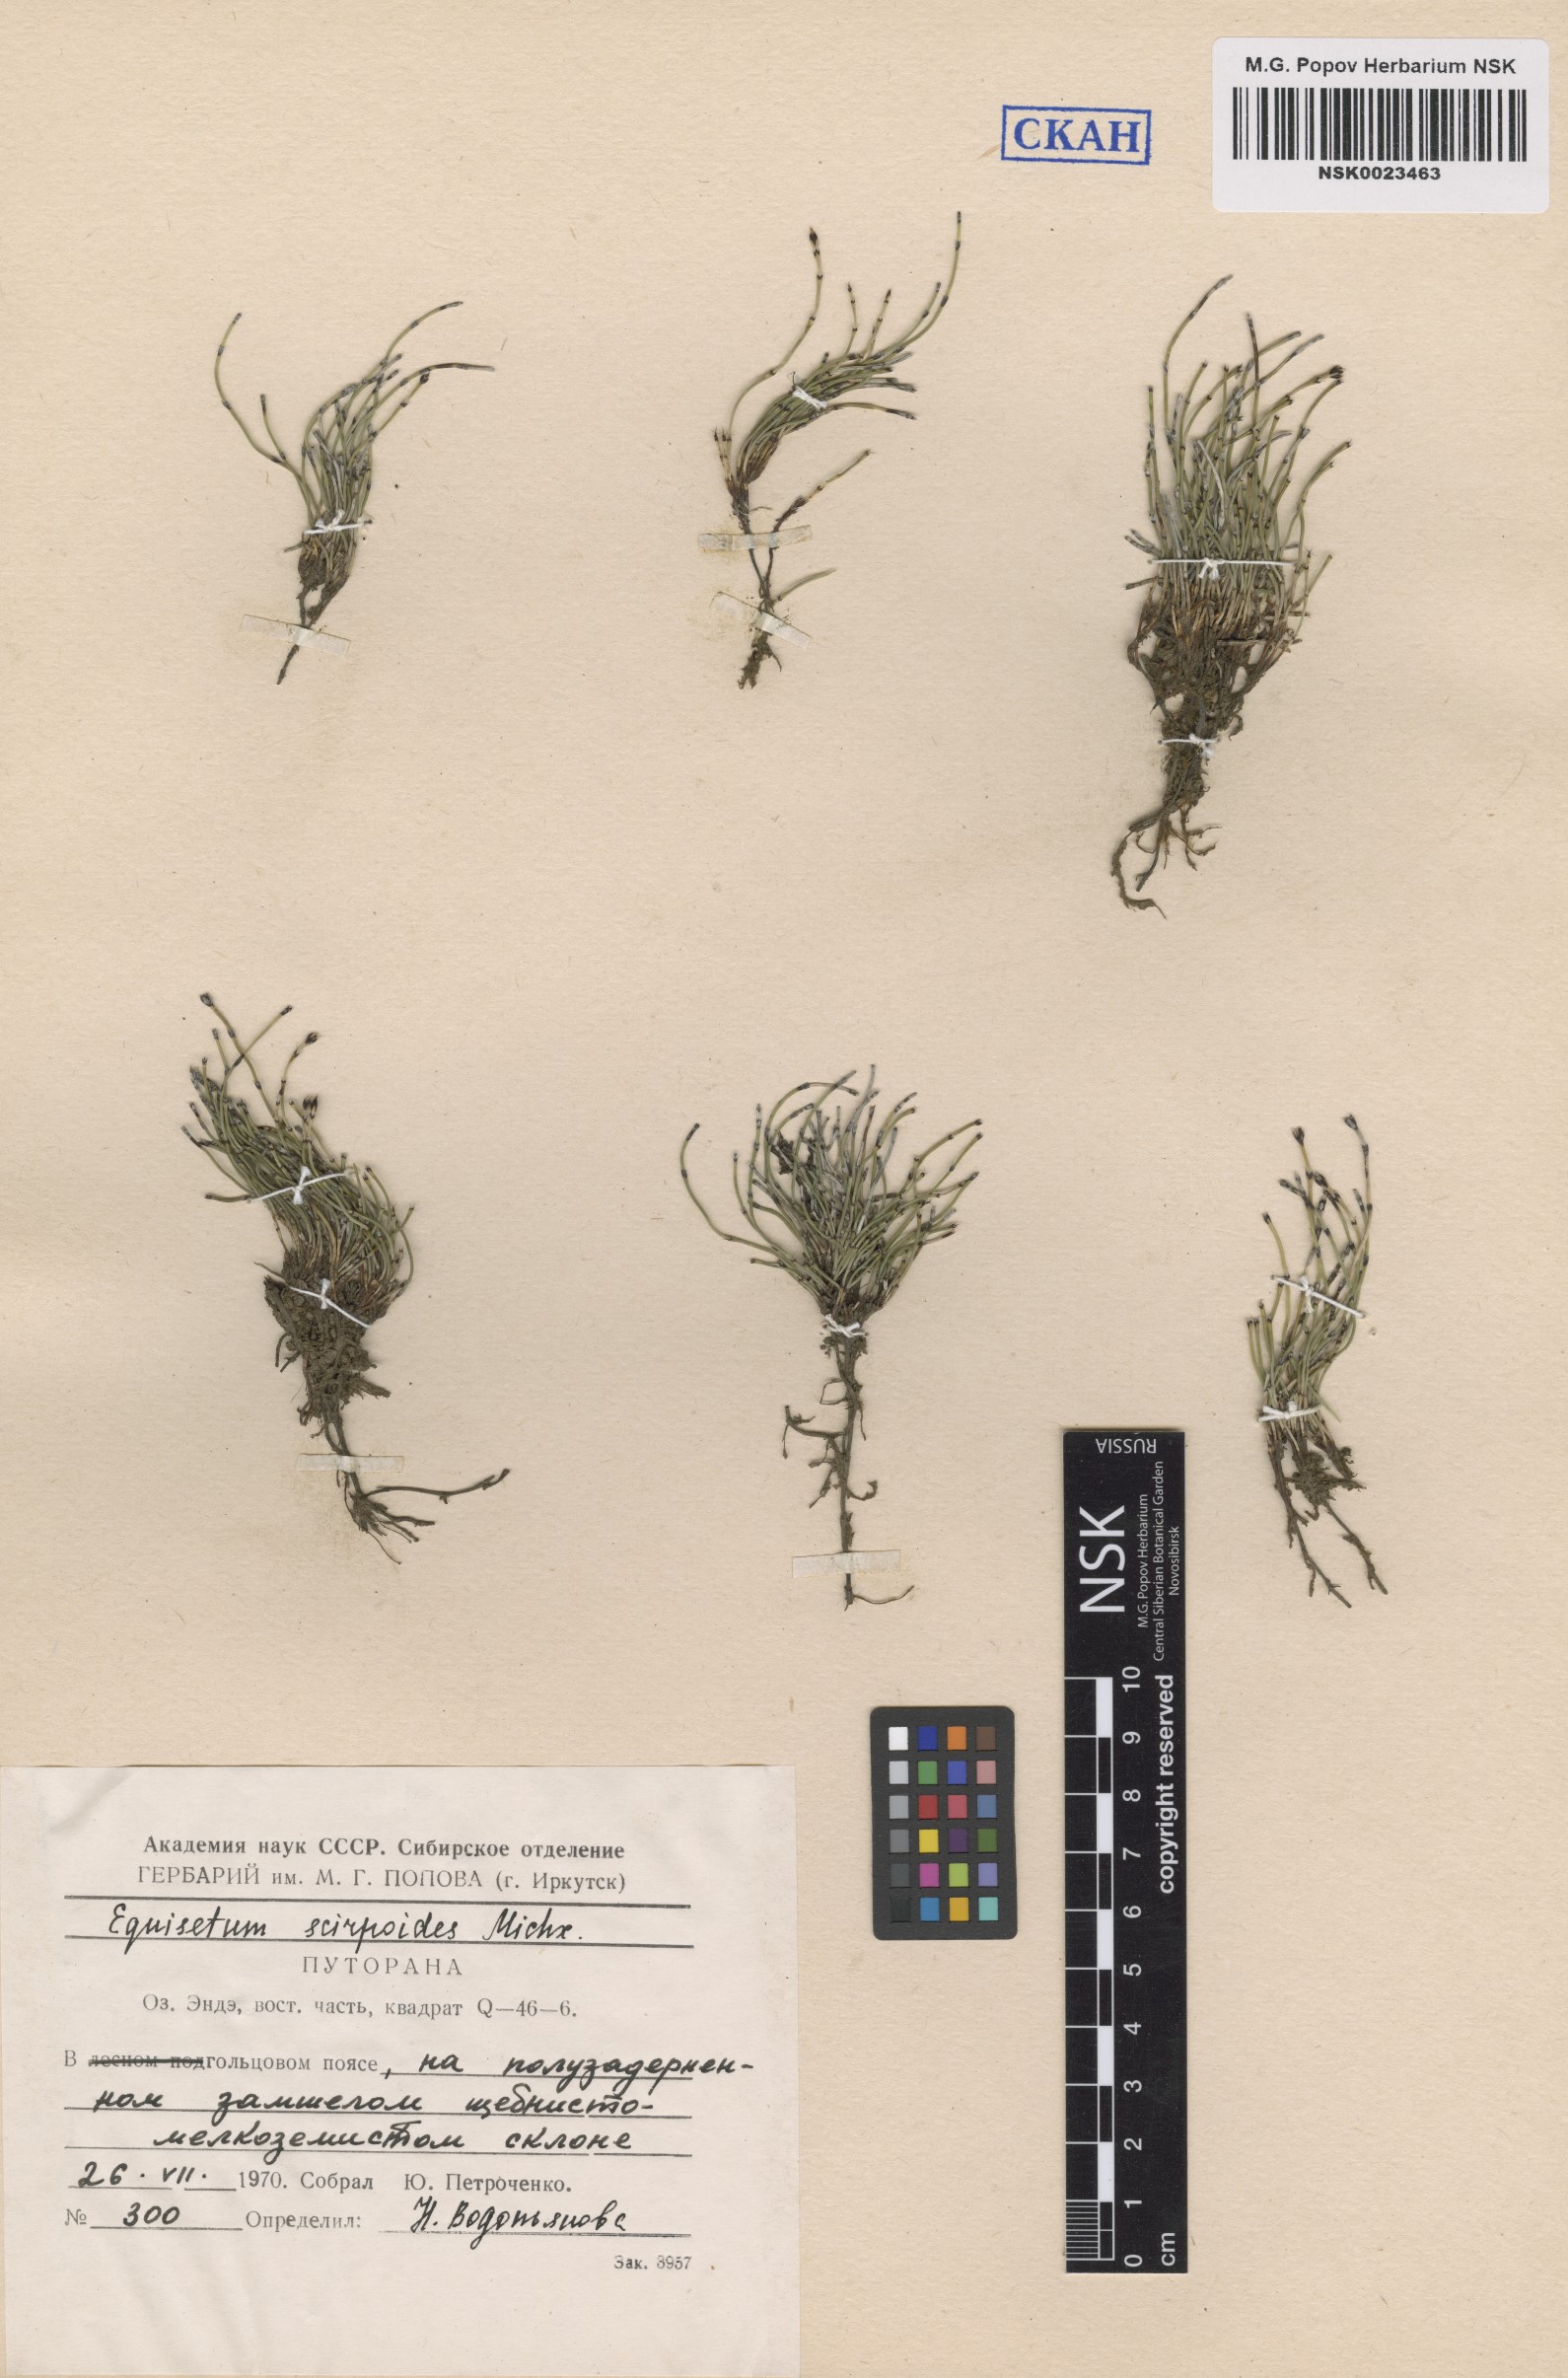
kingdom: Plantae
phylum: Tracheophyta
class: Polypodiopsida
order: Equisetales
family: Equisetaceae
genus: Equisetum
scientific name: Equisetum scirpoides
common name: Delicate horsetail
